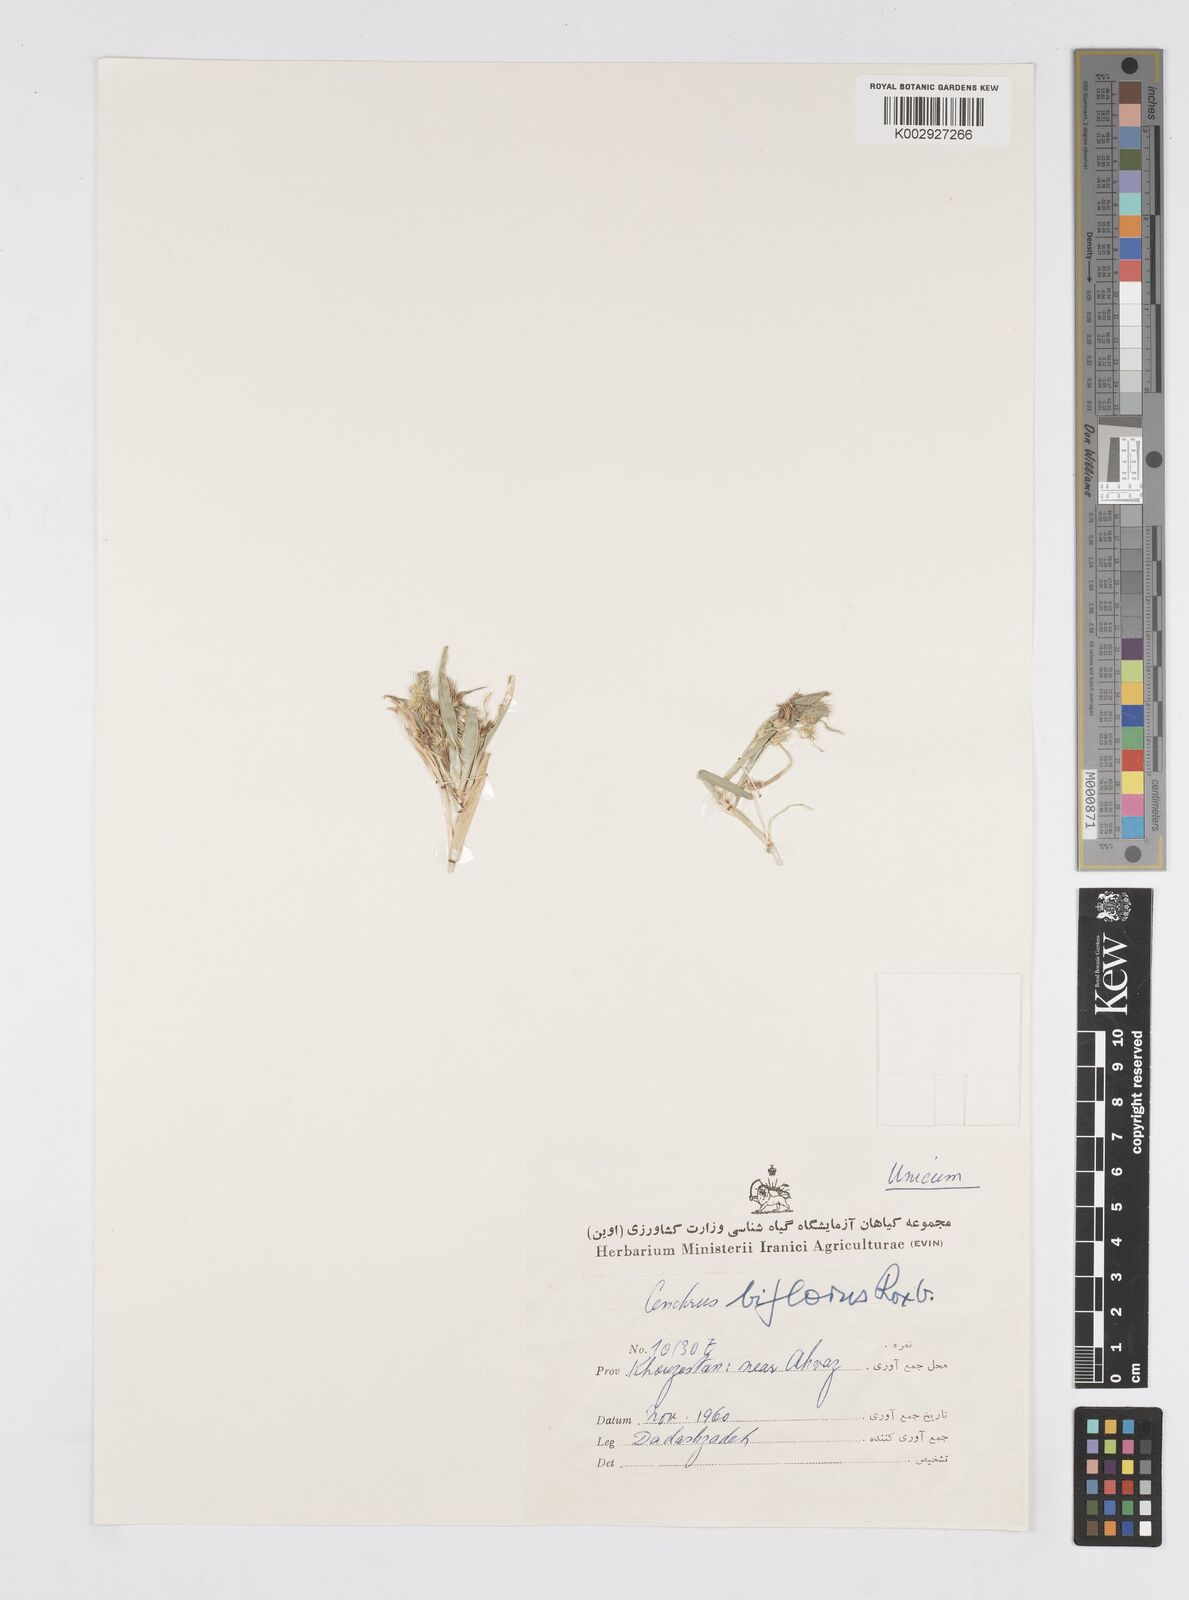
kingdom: Plantae
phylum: Tracheophyta
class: Liliopsida
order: Poales
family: Poaceae
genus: Cenchrus
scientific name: Cenchrus biflorus
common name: Indian sandbur
